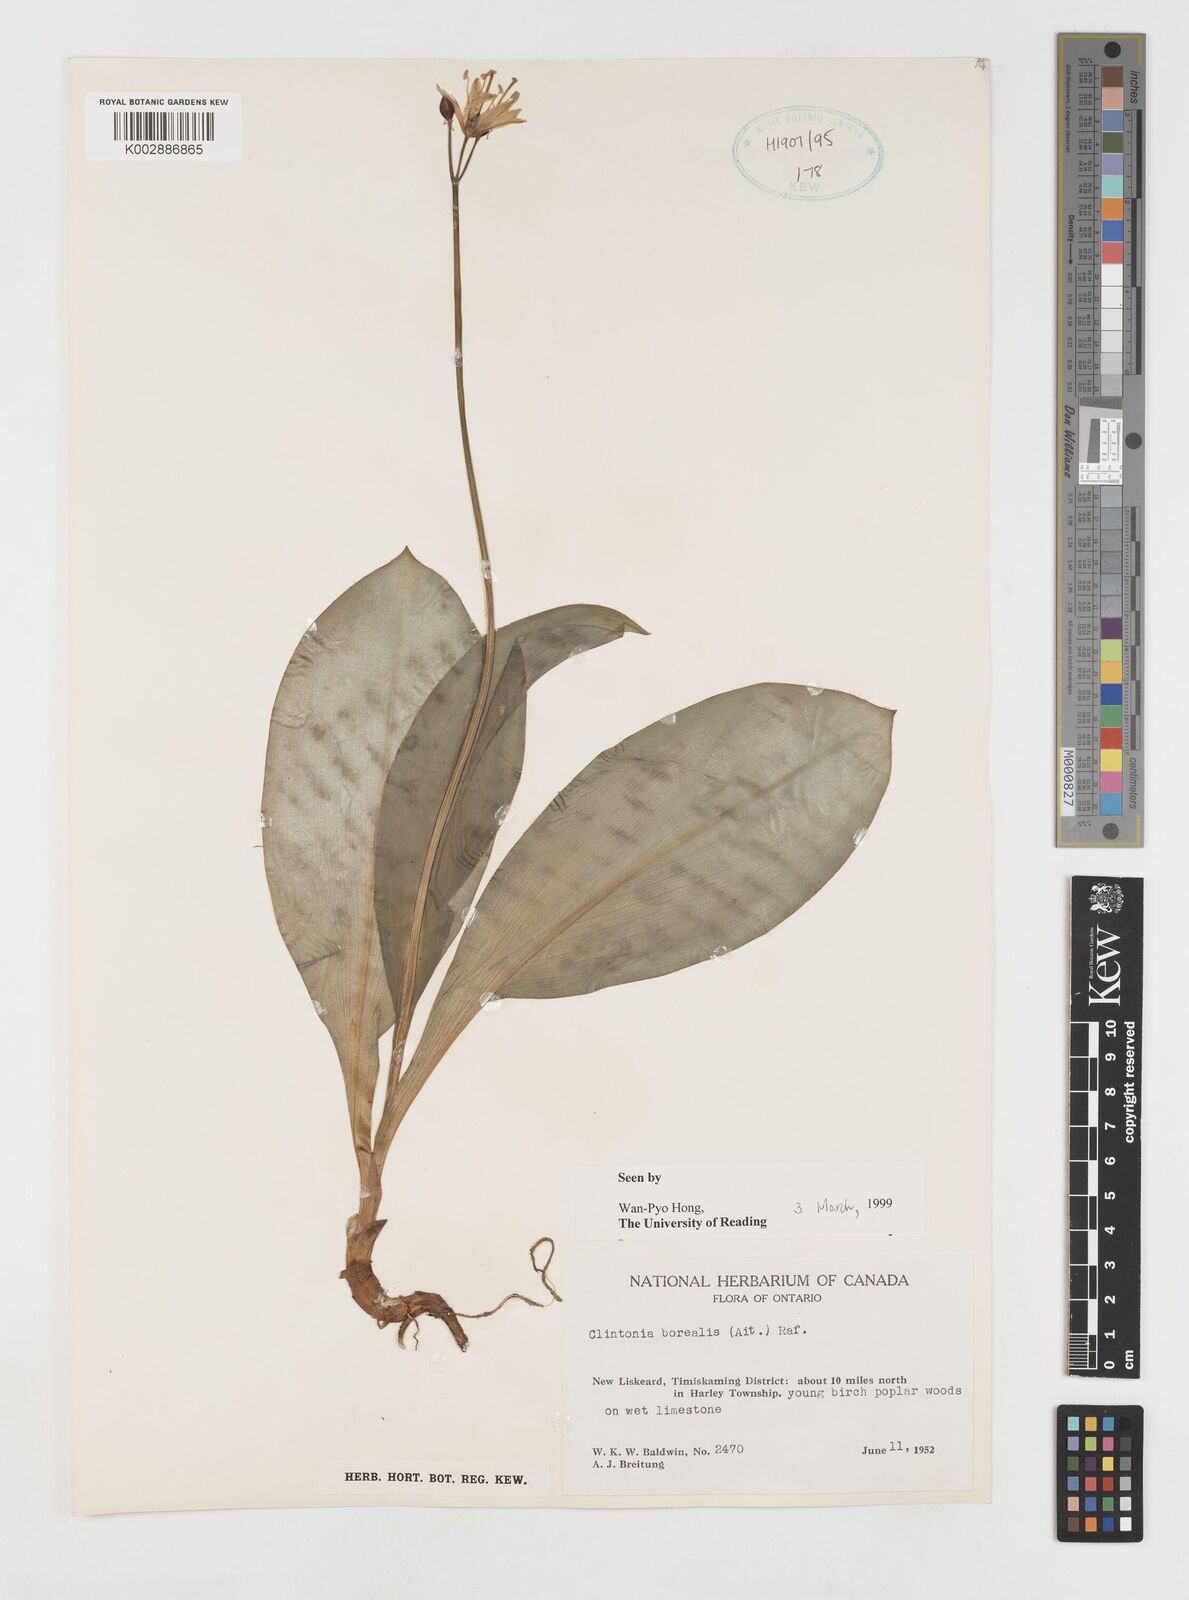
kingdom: Plantae
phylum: Tracheophyta
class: Liliopsida
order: Liliales
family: Liliaceae
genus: Clintonia
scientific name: Clintonia borealis
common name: Yellow clintonia
